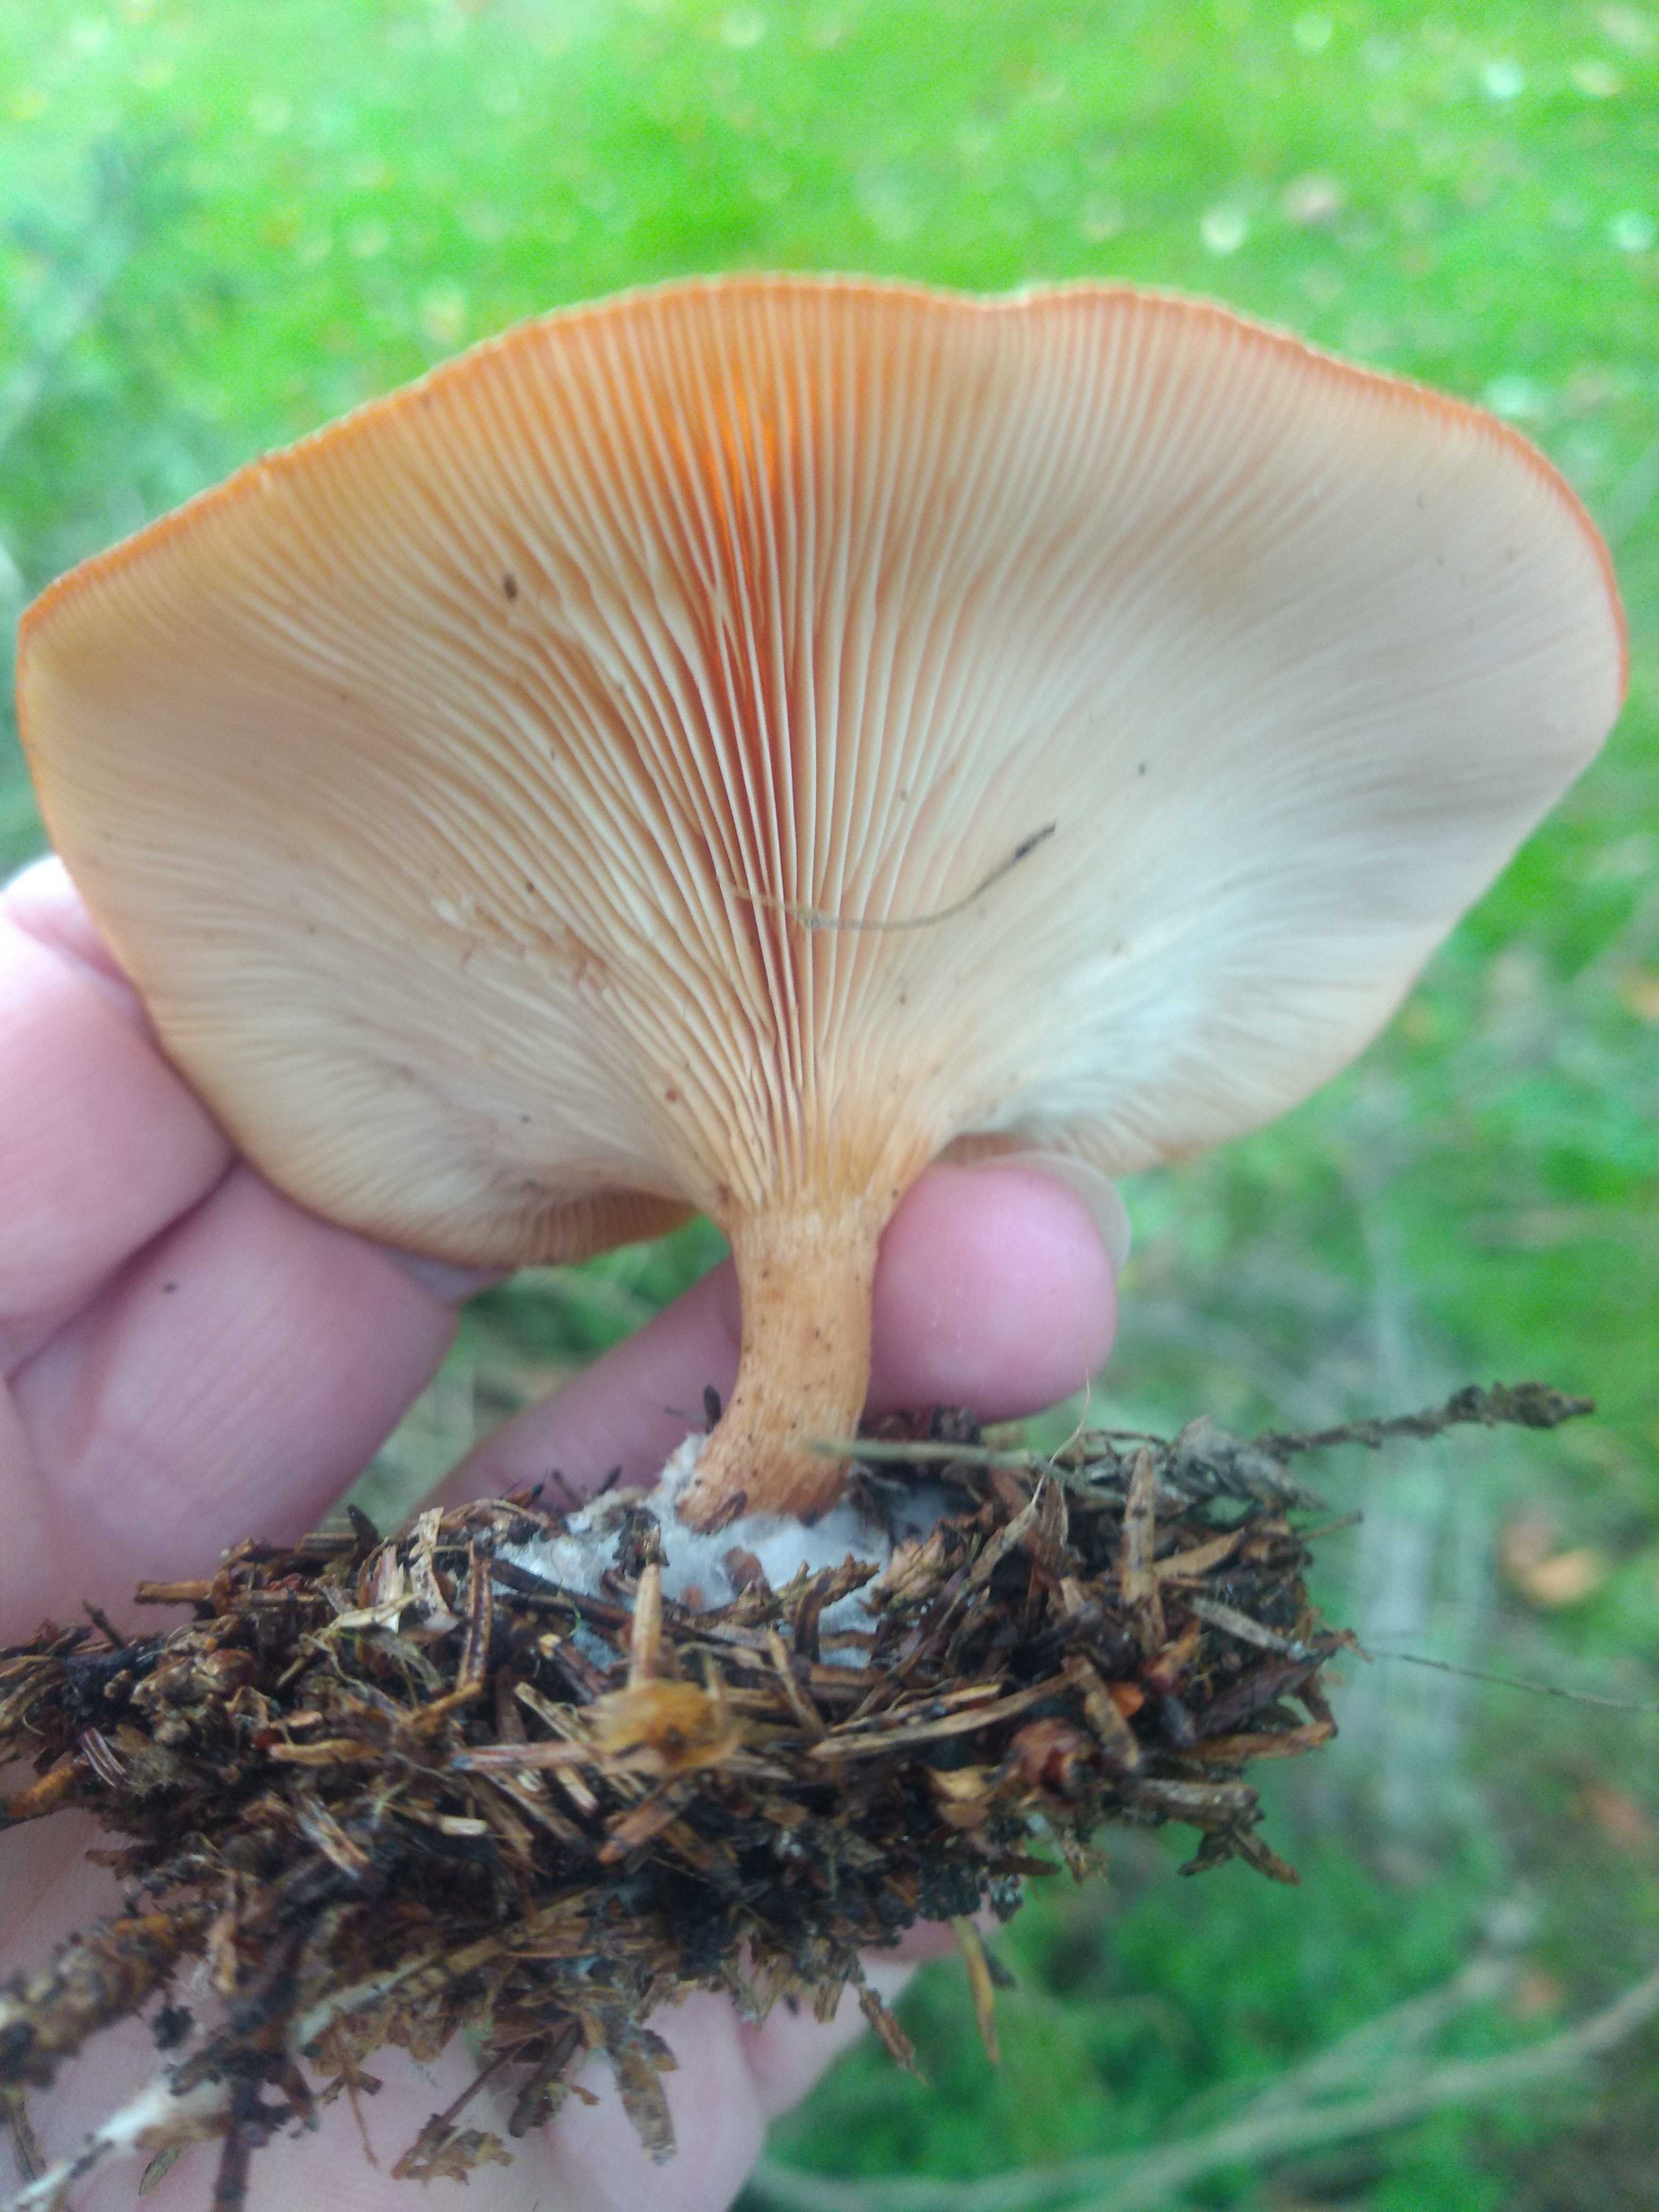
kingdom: Fungi
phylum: Basidiomycota
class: Agaricomycetes
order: Agaricales
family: Tricholomataceae
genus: Paralepista
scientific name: Paralepista flaccida
